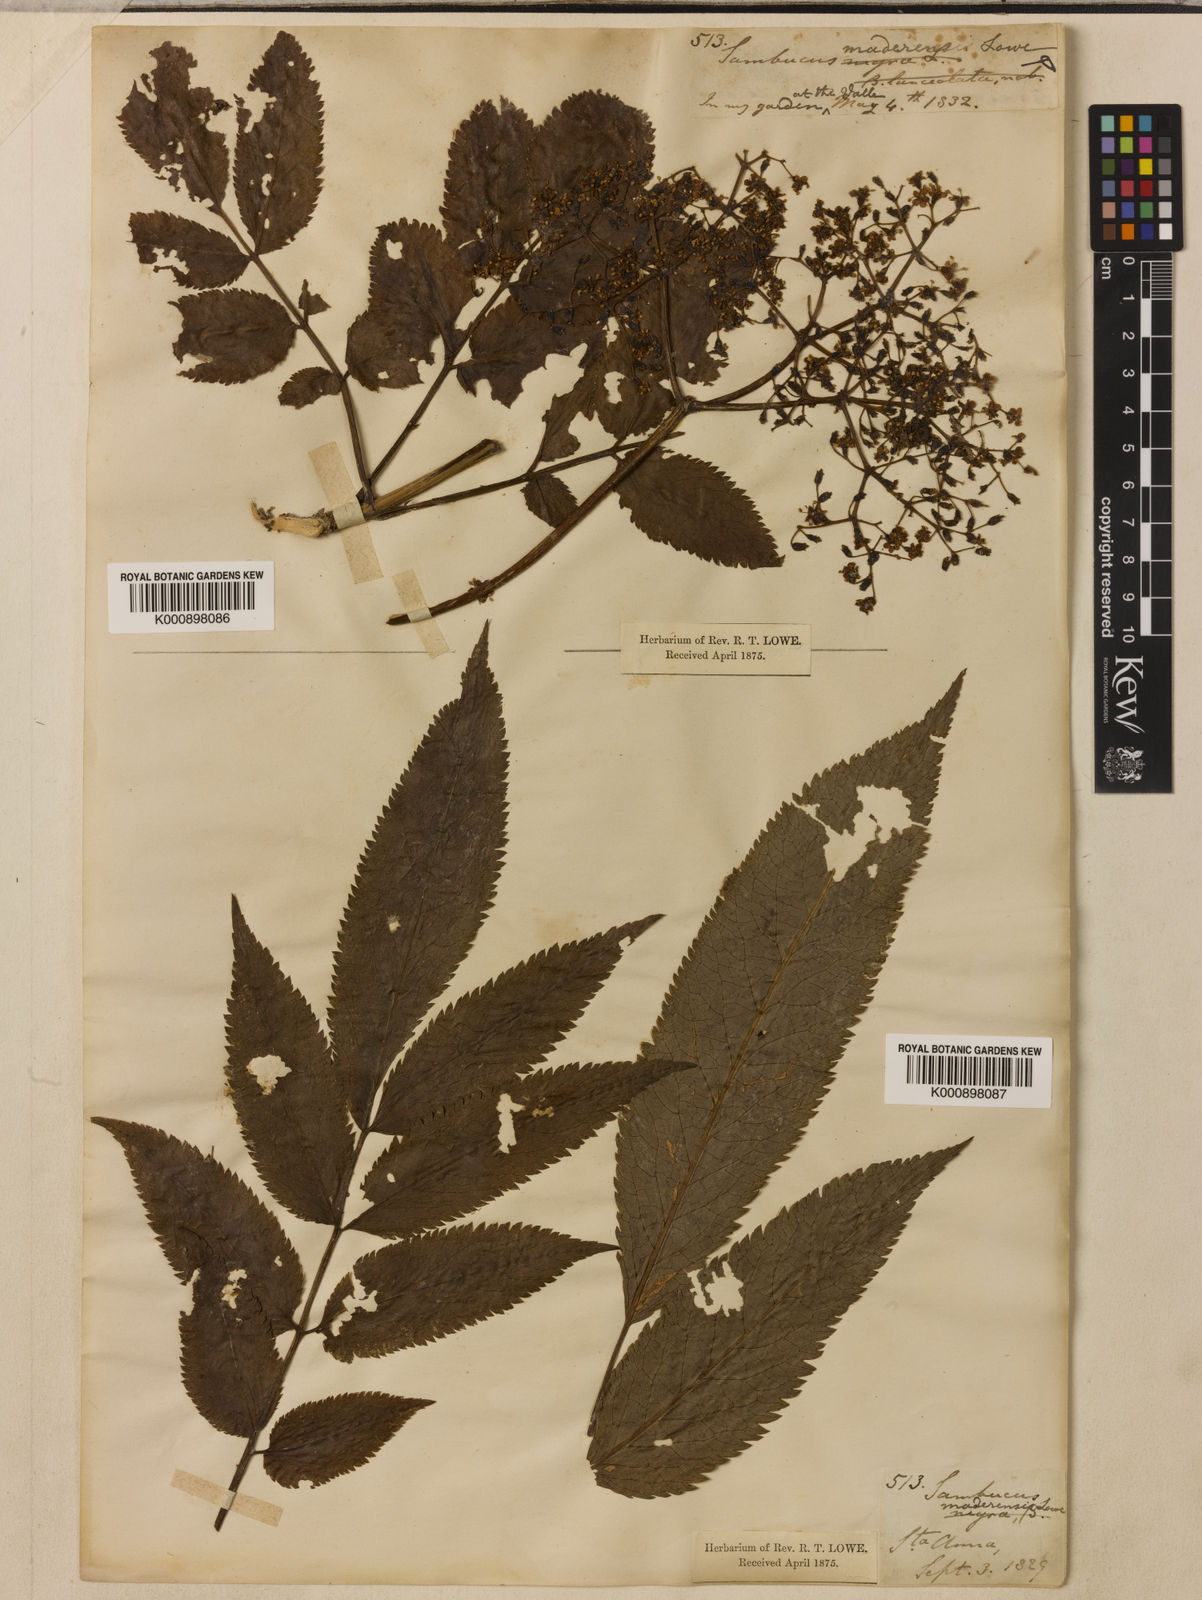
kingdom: Plantae
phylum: Tracheophyta
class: Magnoliopsida
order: Dipsacales
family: Viburnaceae
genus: Sambucus
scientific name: Sambucus lanceolata
